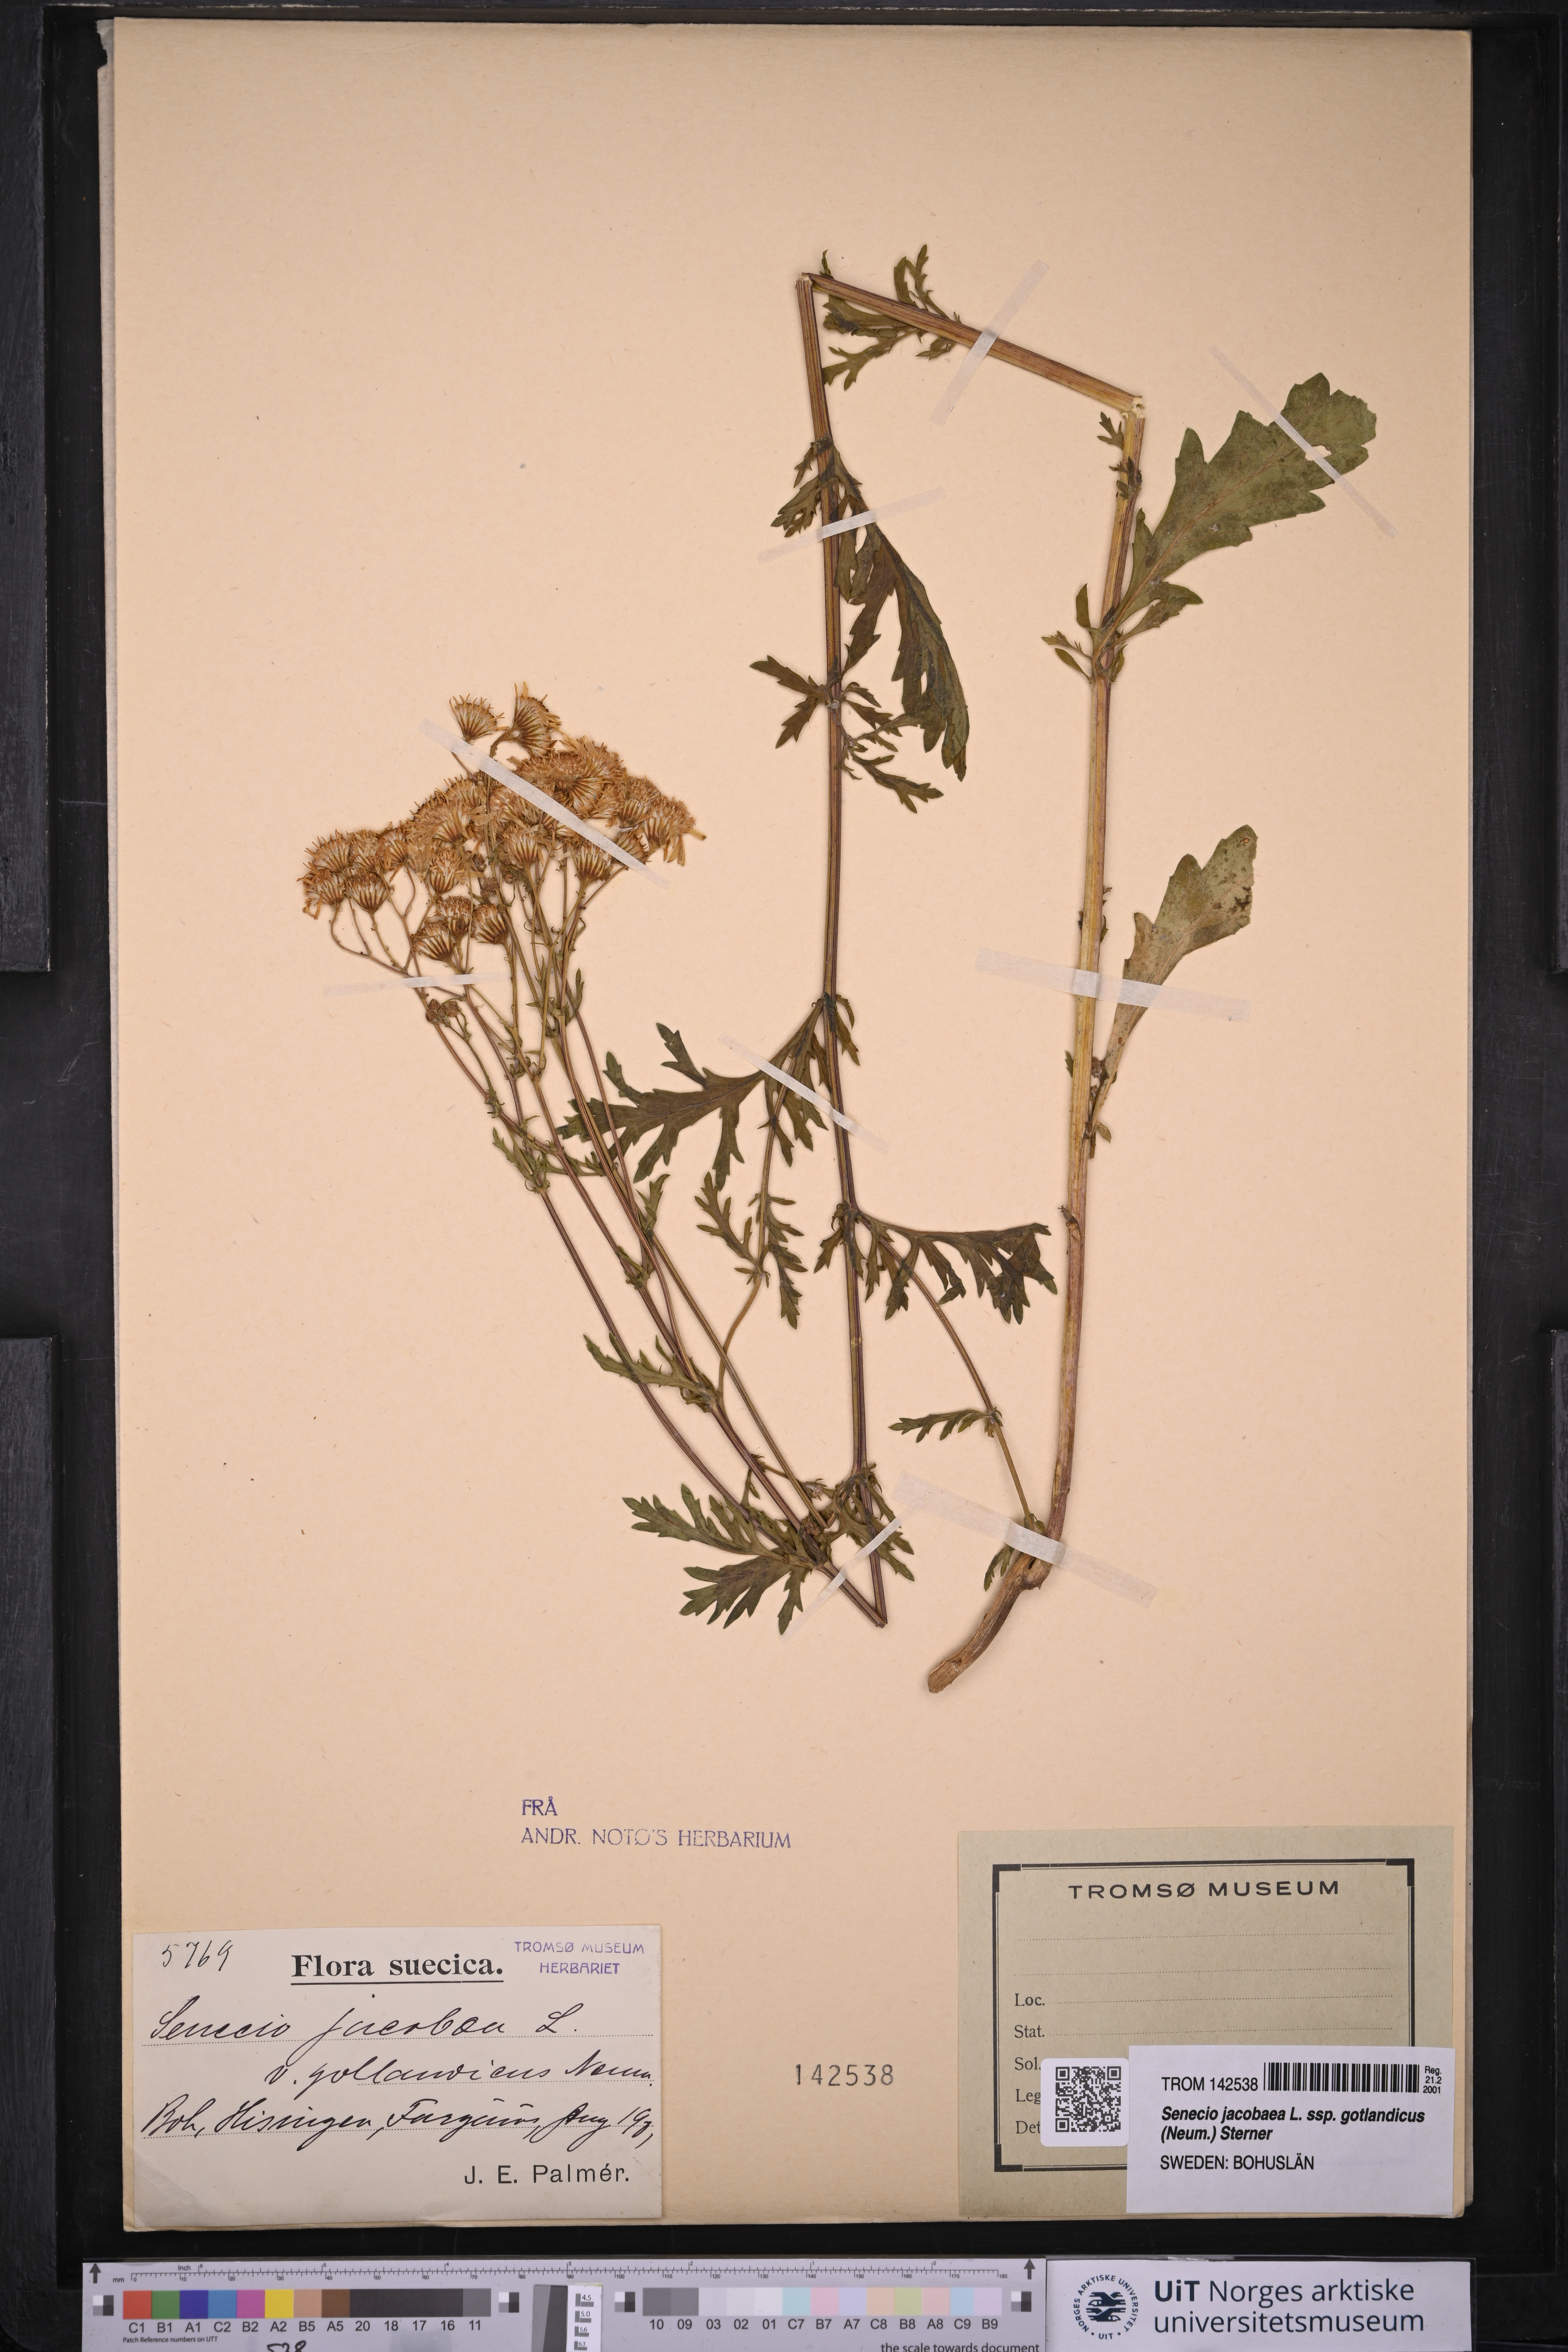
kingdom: Plantae
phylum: Tracheophyta
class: Magnoliopsida
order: Asterales
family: Asteraceae
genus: Jacobaea
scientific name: Jacobaea vulgaris
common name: Stinking willie
